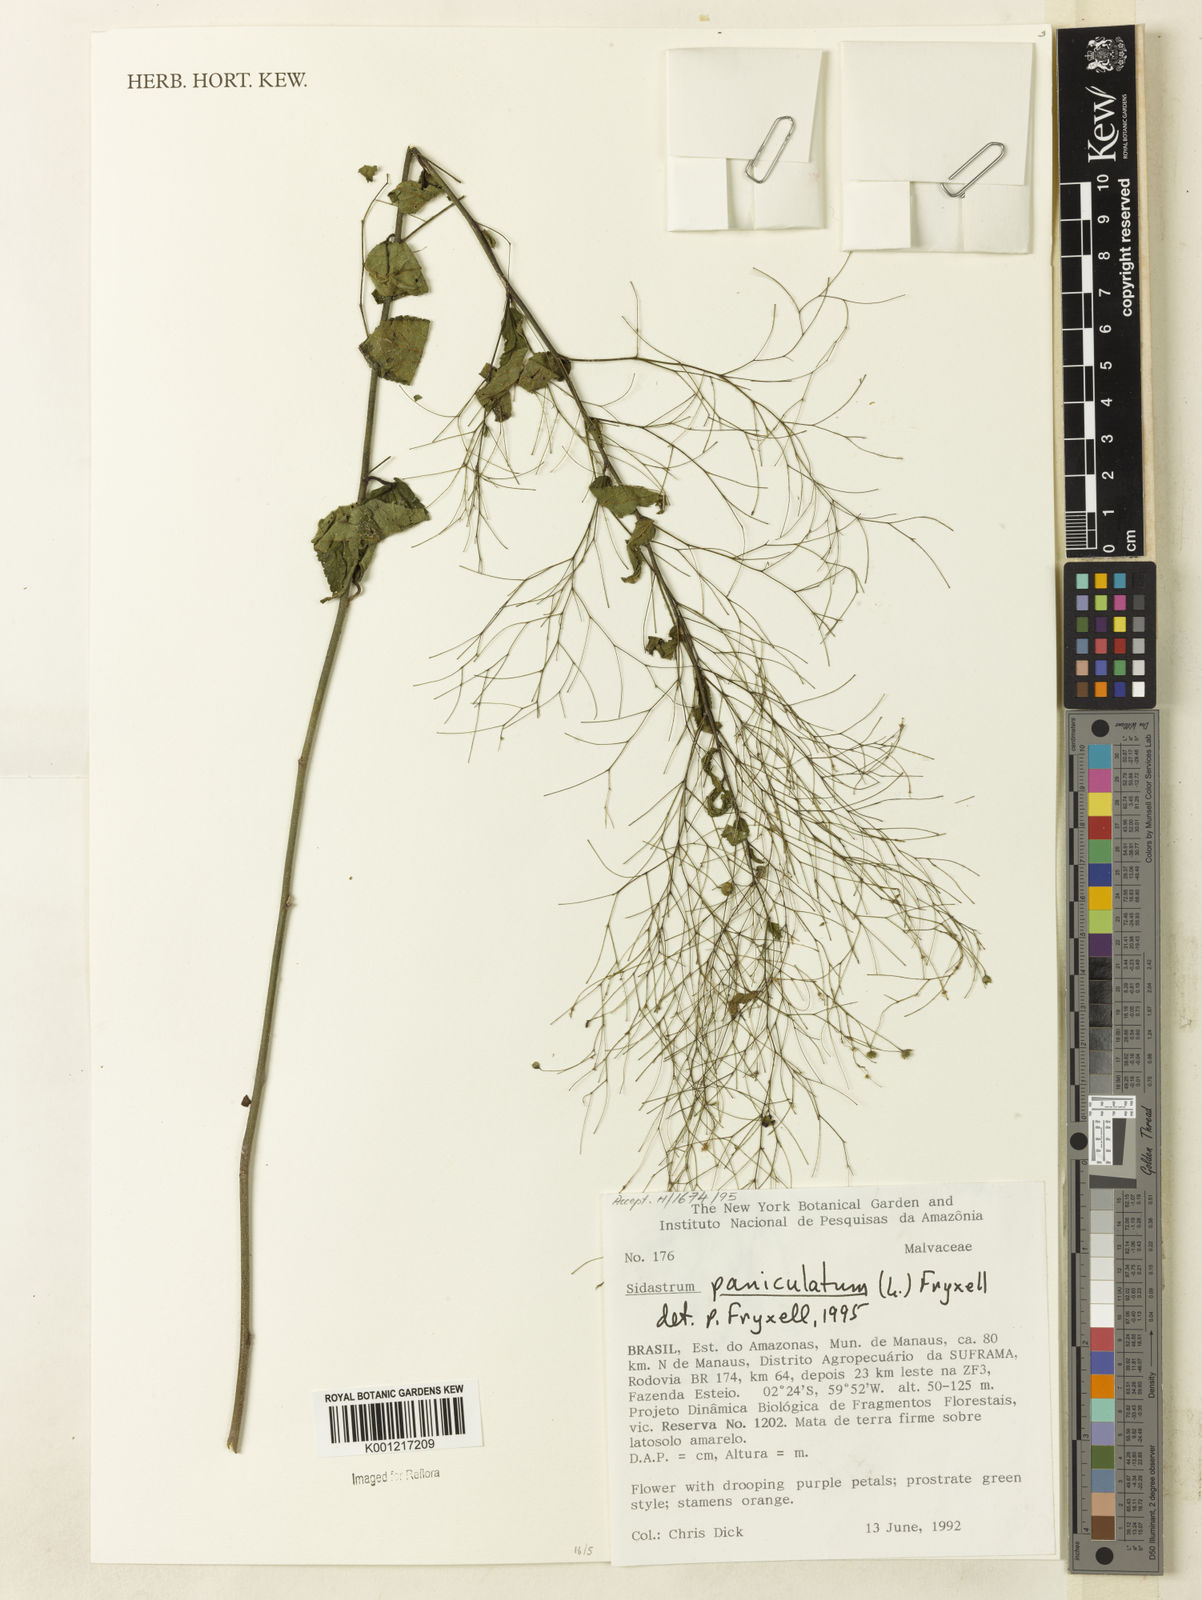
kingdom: Plantae
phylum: Tracheophyta
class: Magnoliopsida
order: Malvales
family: Malvaceae
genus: Sidastrum
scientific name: Sidastrum paniculatum
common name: Panicled sandmallow
